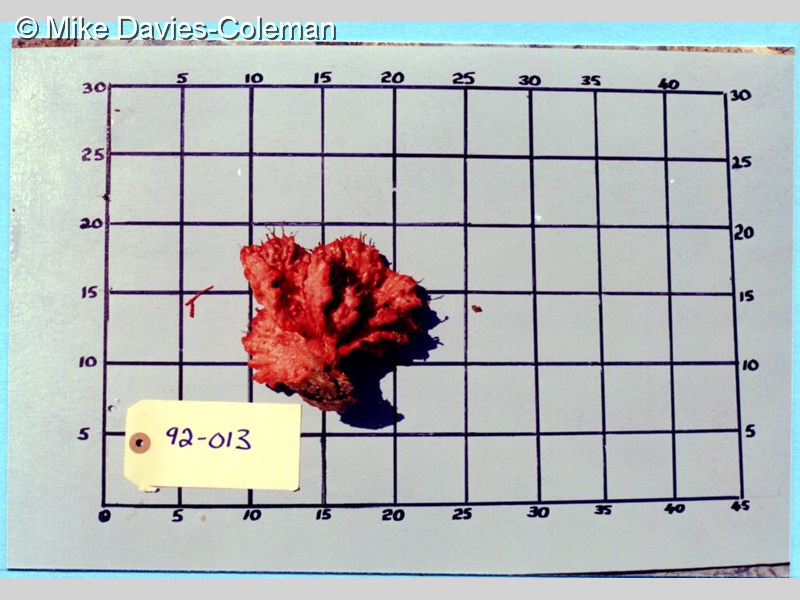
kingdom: Animalia
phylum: Porifera
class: Demospongiae
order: Poecilosclerida
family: Microcionidae
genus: Clathria
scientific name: Clathria
